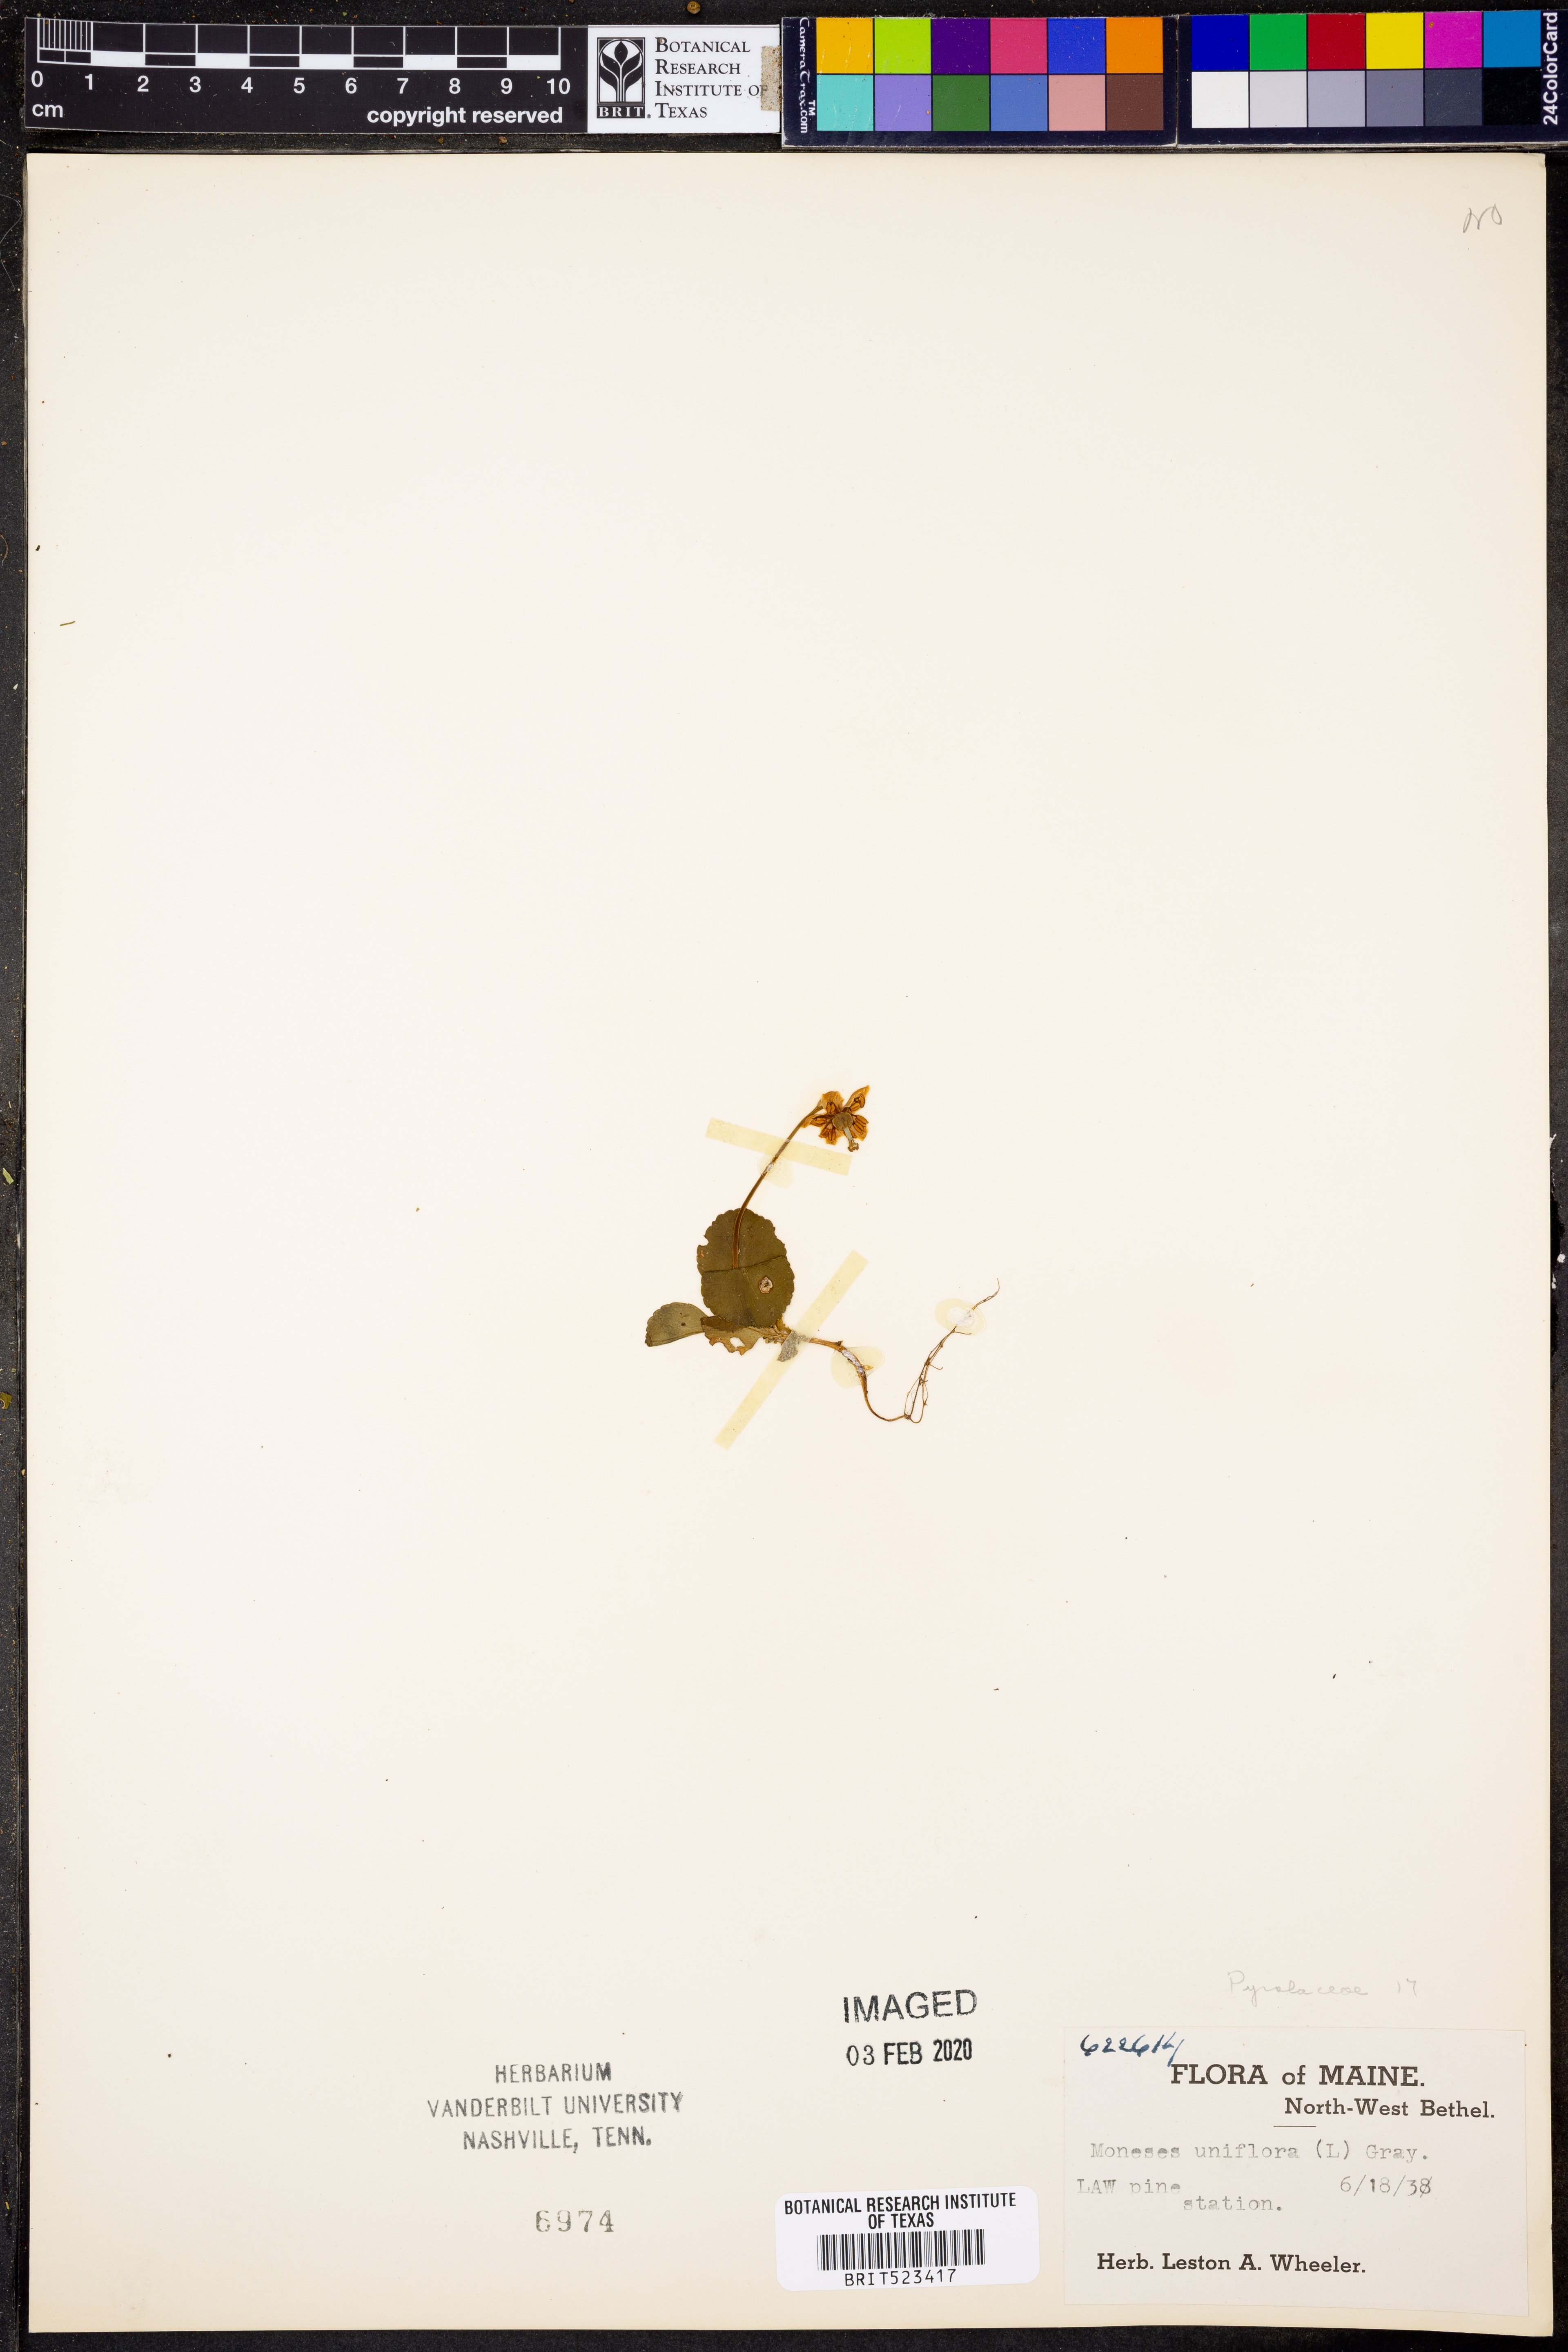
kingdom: Plantae
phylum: Tracheophyta
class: Magnoliopsida
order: Ericales
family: Ericaceae
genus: Moneses
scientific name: Moneses uniflora
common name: One-flowered wintergreen
